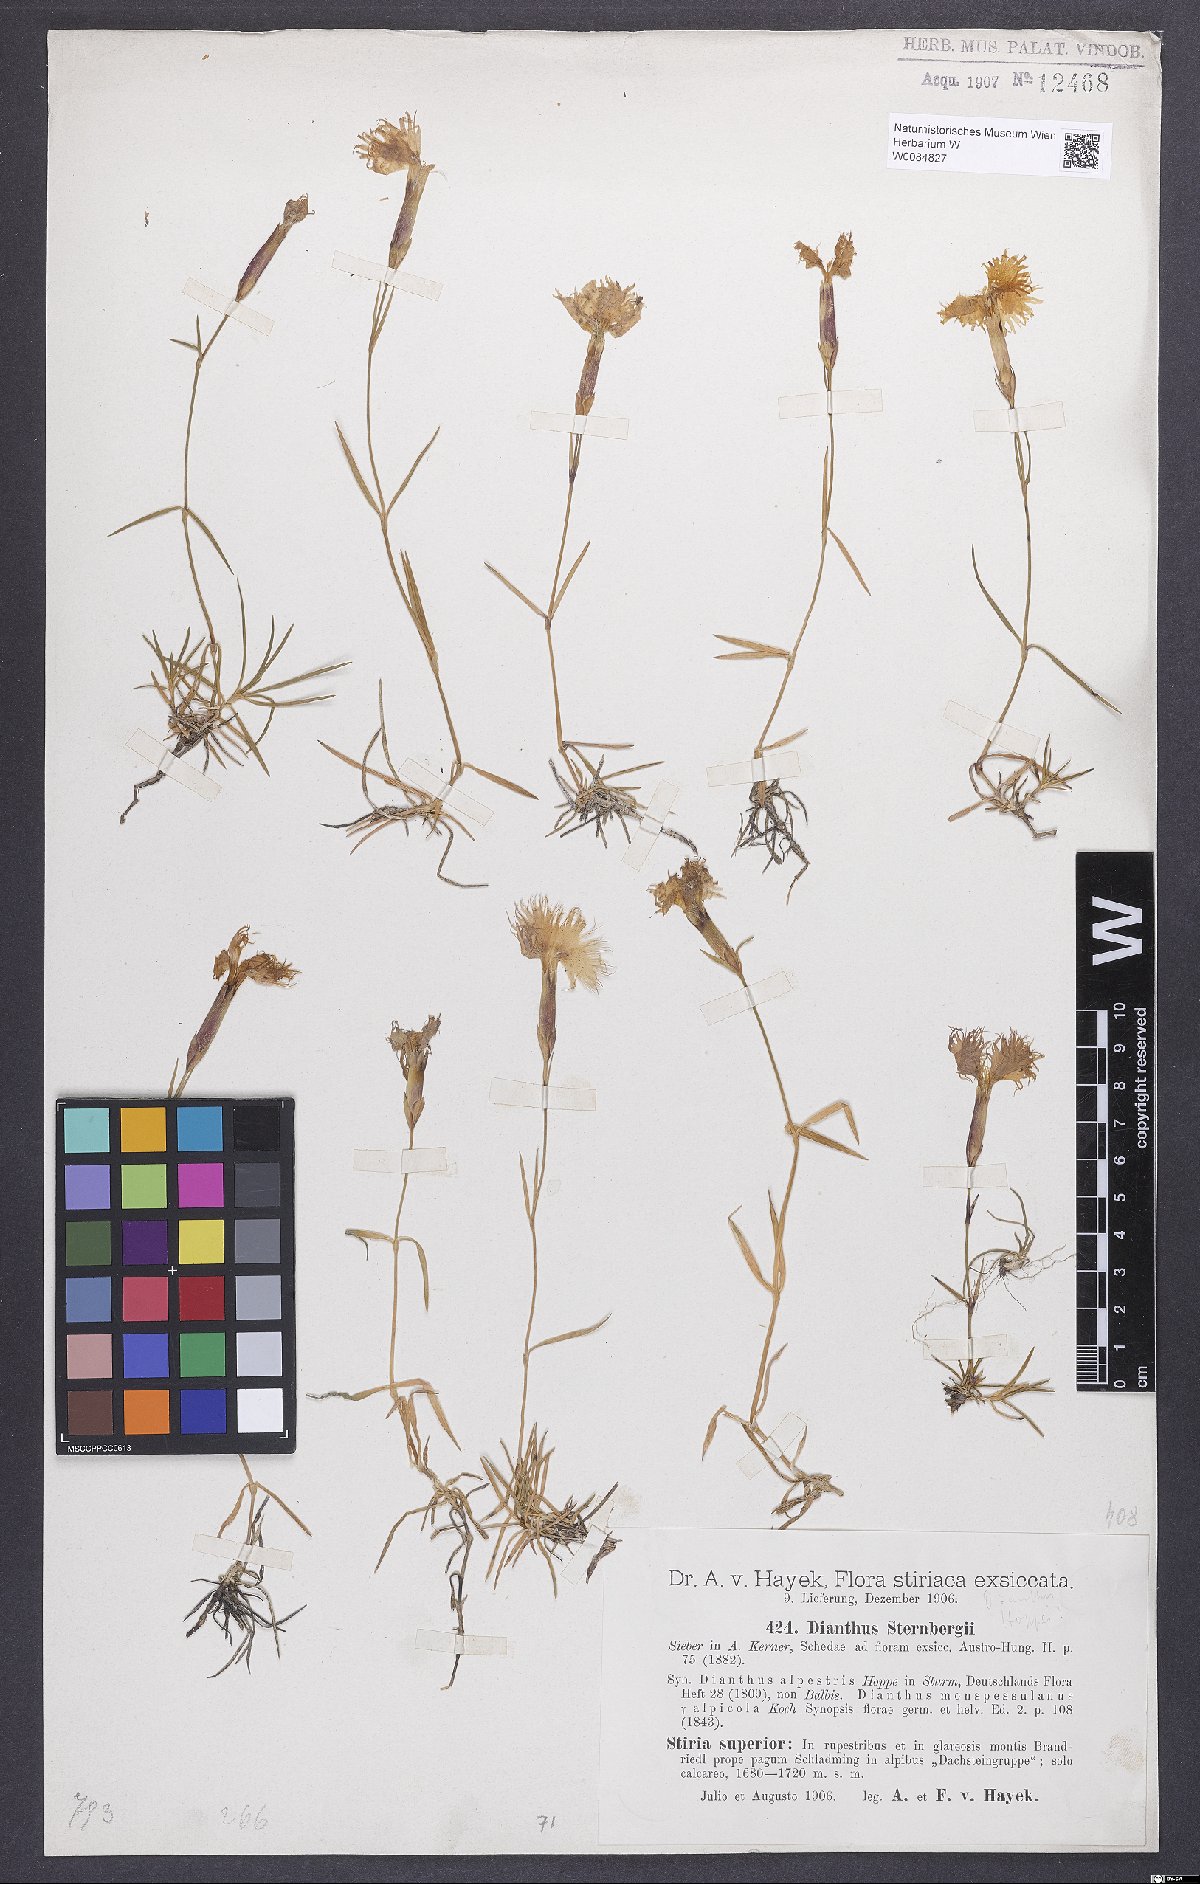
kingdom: Plantae
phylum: Tracheophyta
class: Magnoliopsida
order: Caryophyllales
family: Caryophyllaceae
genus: Dianthus
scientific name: Dianthus monspessulanus
